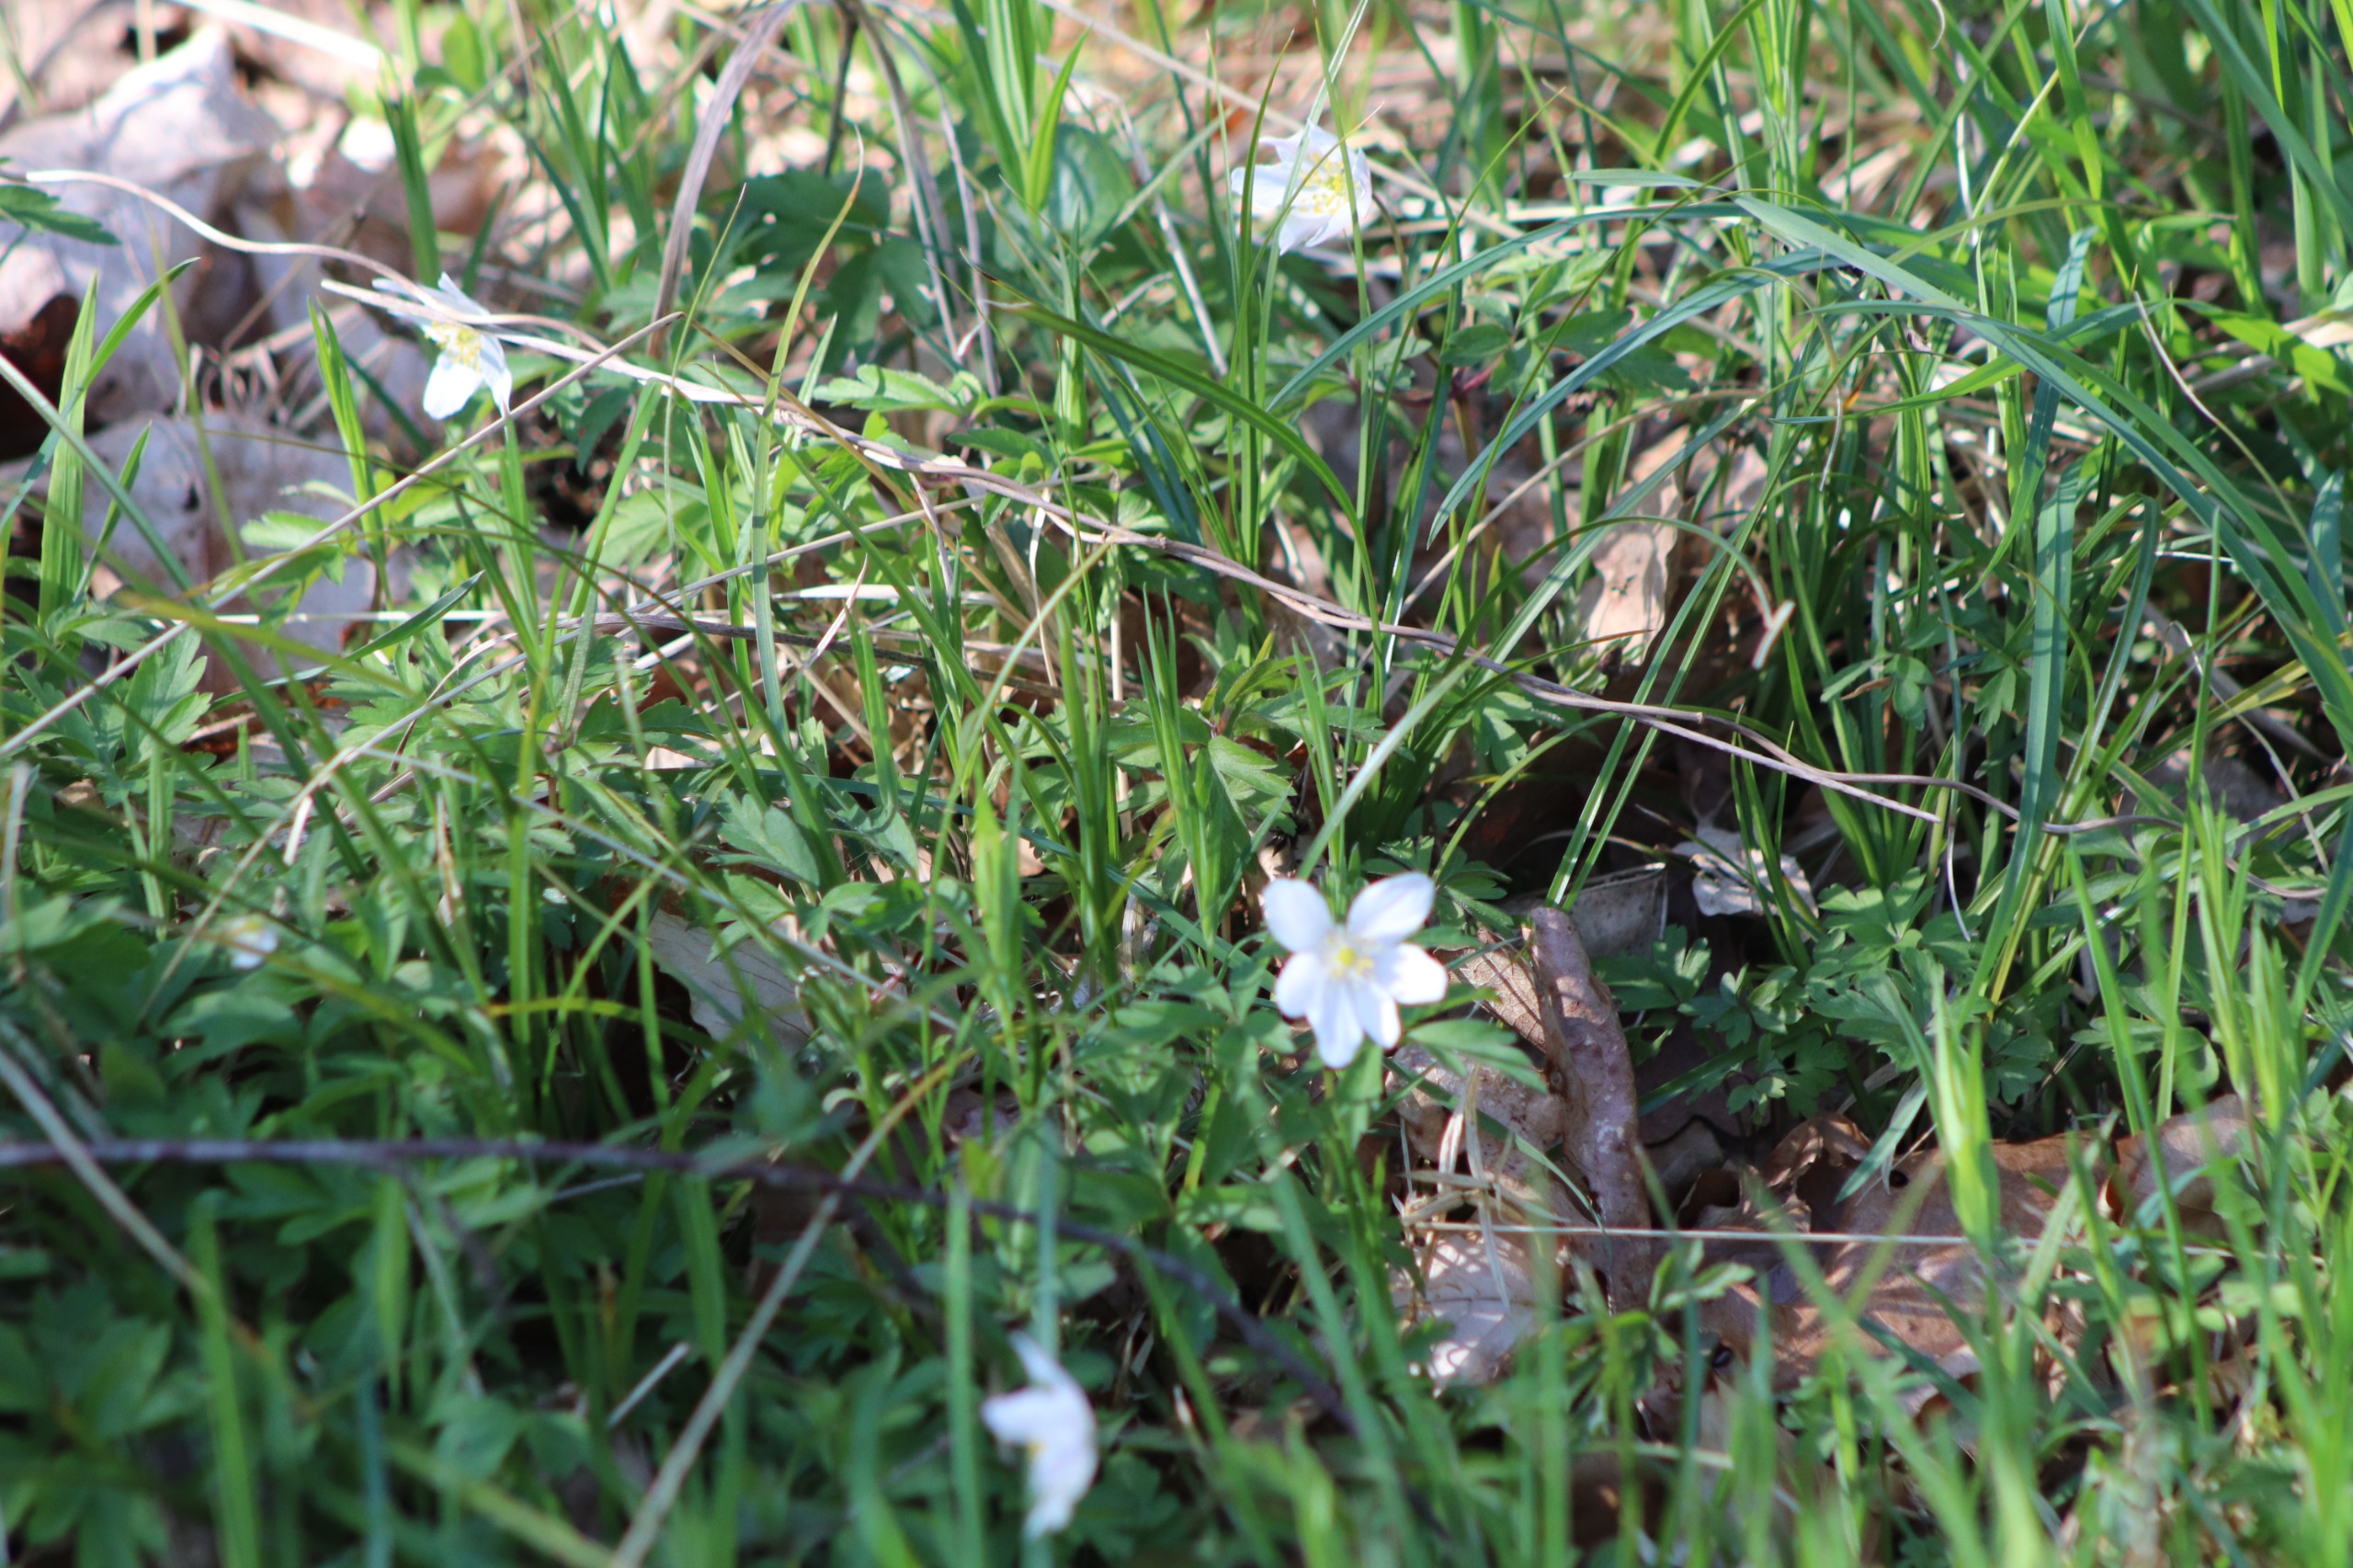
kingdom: Plantae
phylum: Tracheophyta
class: Magnoliopsida
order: Ranunculales
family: Ranunculaceae
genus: Anemone
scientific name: Anemone nemorosa
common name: Hvid anemone
